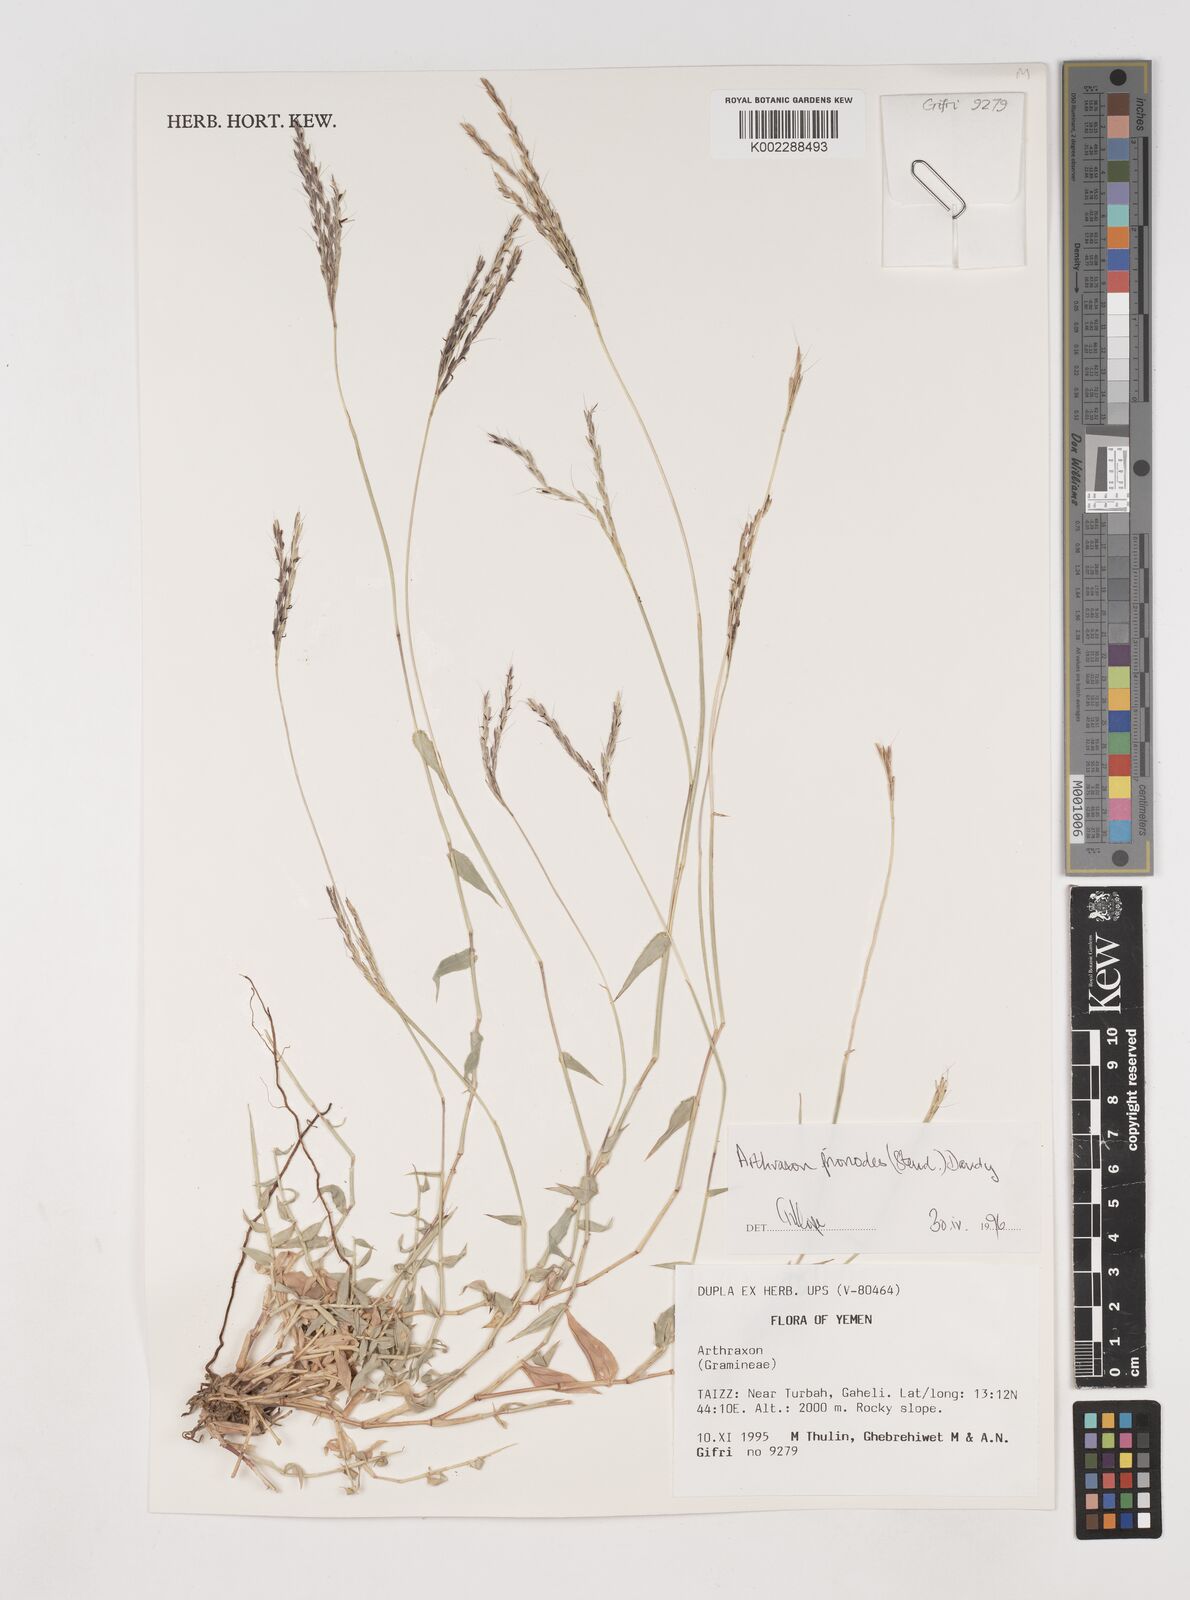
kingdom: Plantae
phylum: Tracheophyta
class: Liliopsida
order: Poales
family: Poaceae
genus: Arthraxon
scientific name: Arthraxon prionodes
